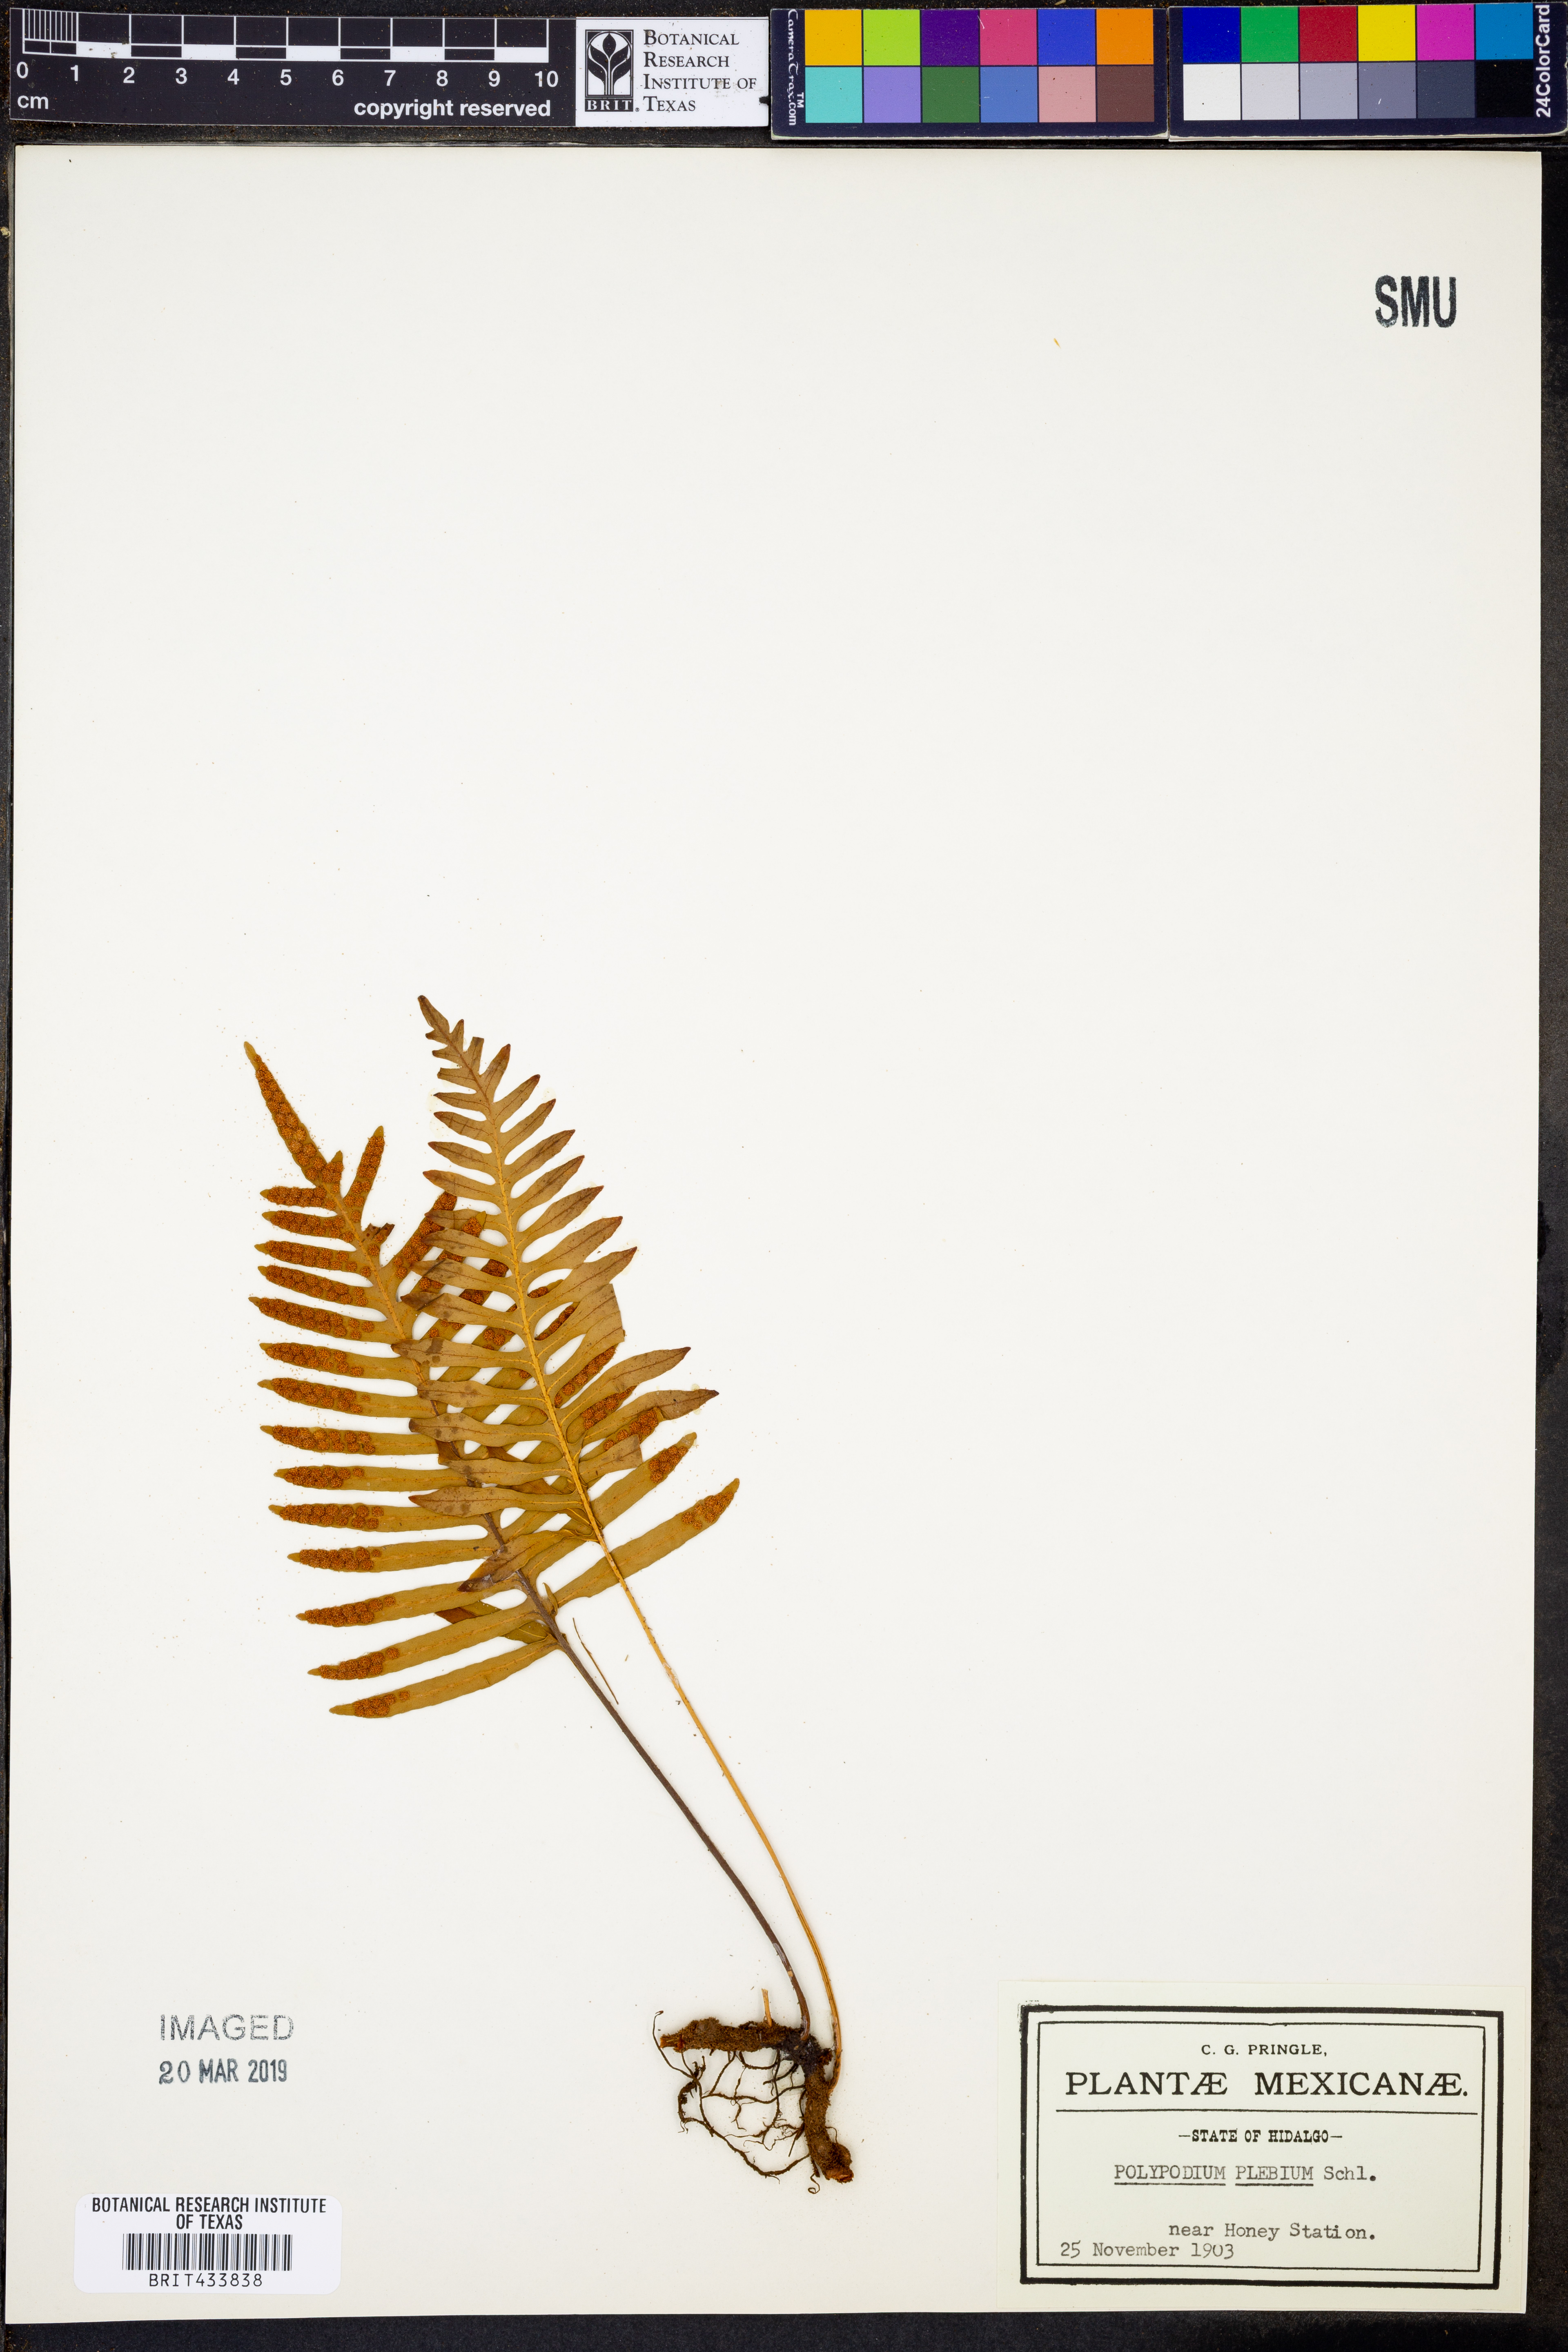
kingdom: Plantae
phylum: Tracheophyta
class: Polypodiopsida
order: Polypodiales
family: Polypodiaceae
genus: Pleopeltis
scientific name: Pleopeltis plebeia
